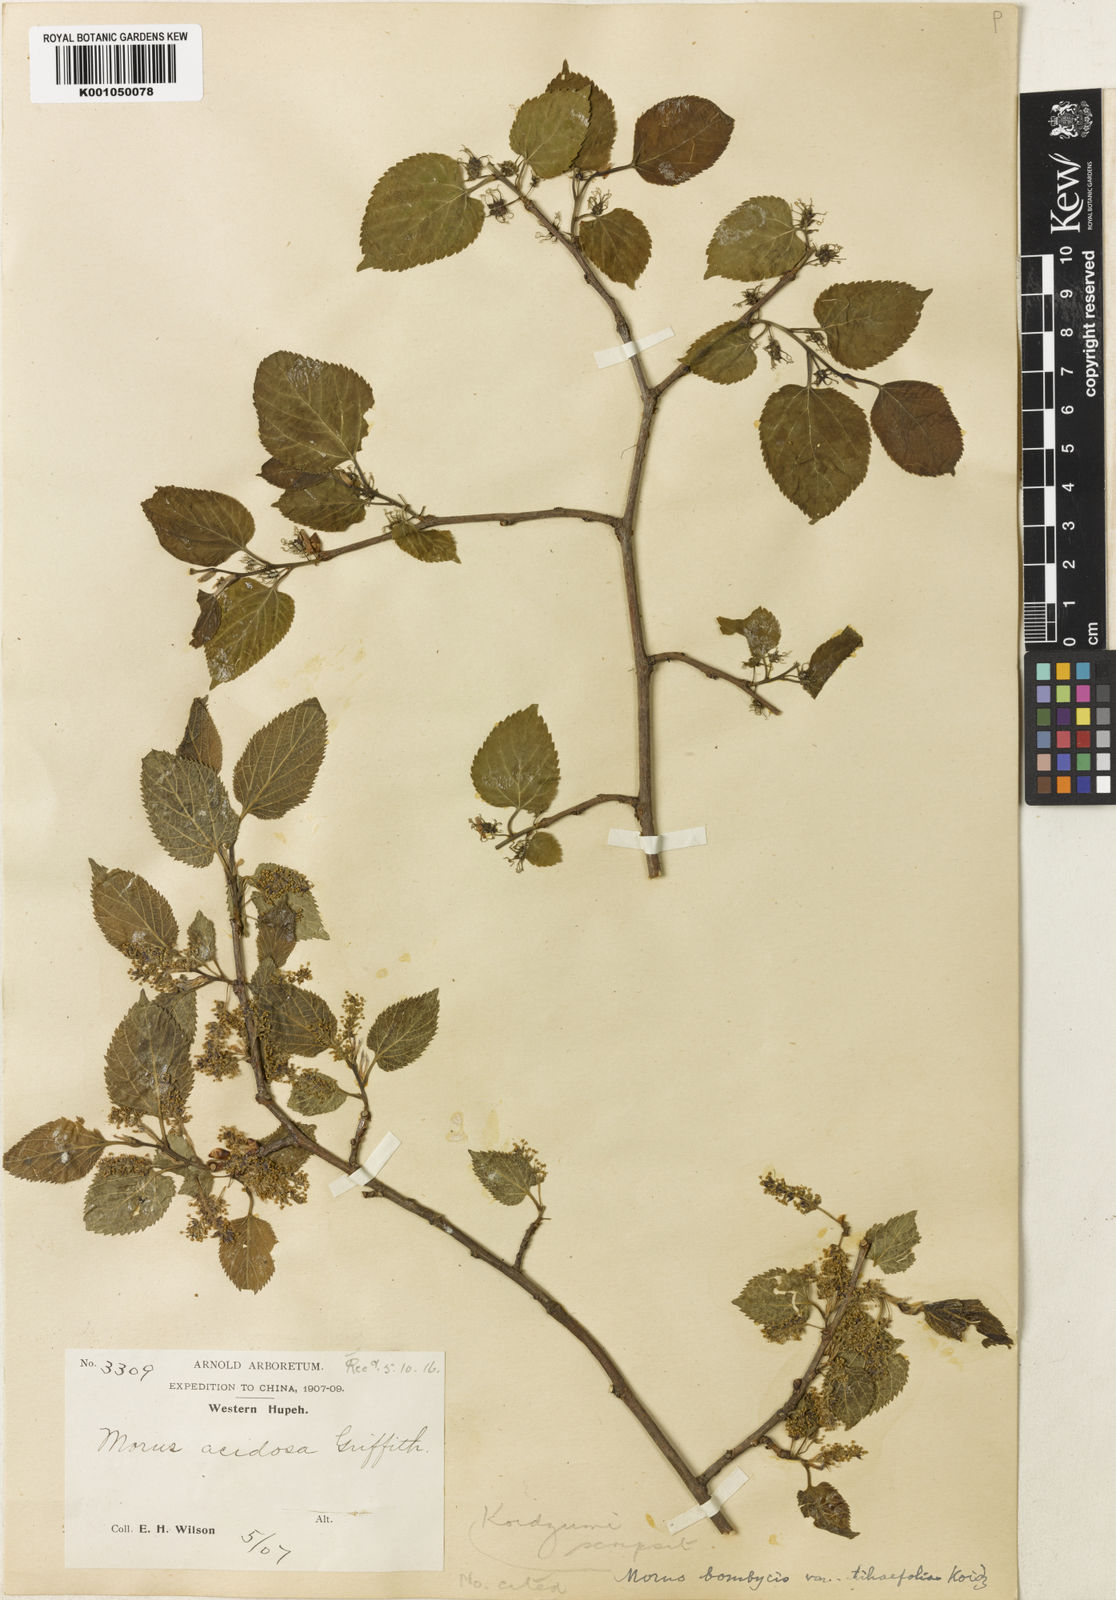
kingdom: Plantae
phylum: Tracheophyta
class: Magnoliopsida
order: Rosales
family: Moraceae
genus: Morus
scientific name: Morus indica
